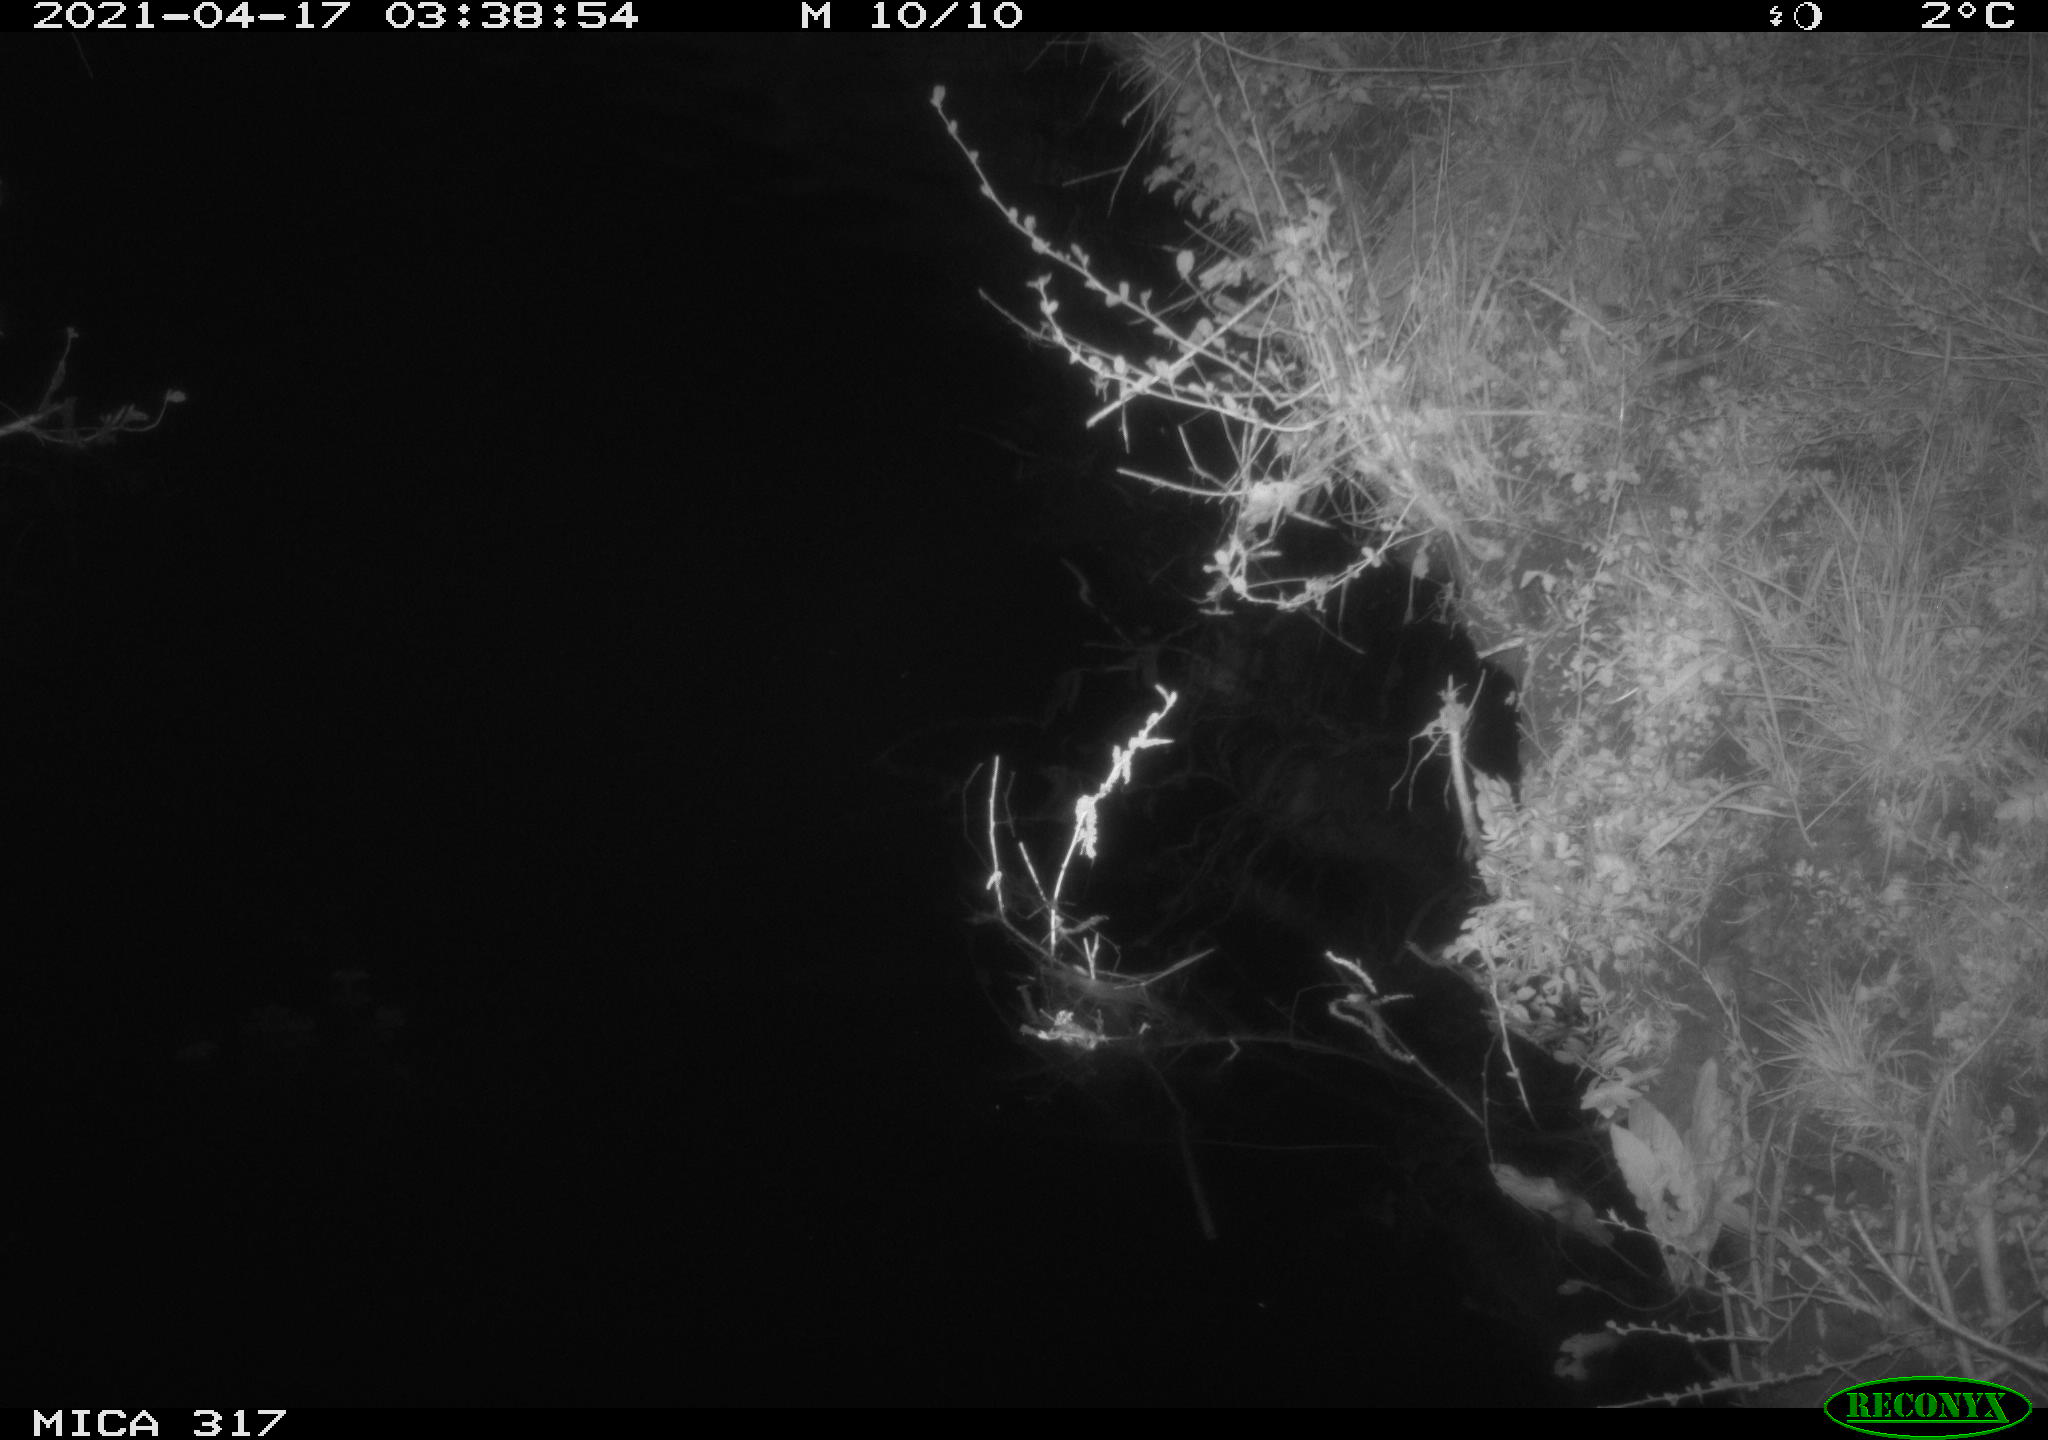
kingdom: Animalia
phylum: Chordata
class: Aves
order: Anseriformes
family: Anatidae
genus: Anas
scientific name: Anas platyrhynchos
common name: Mallard
